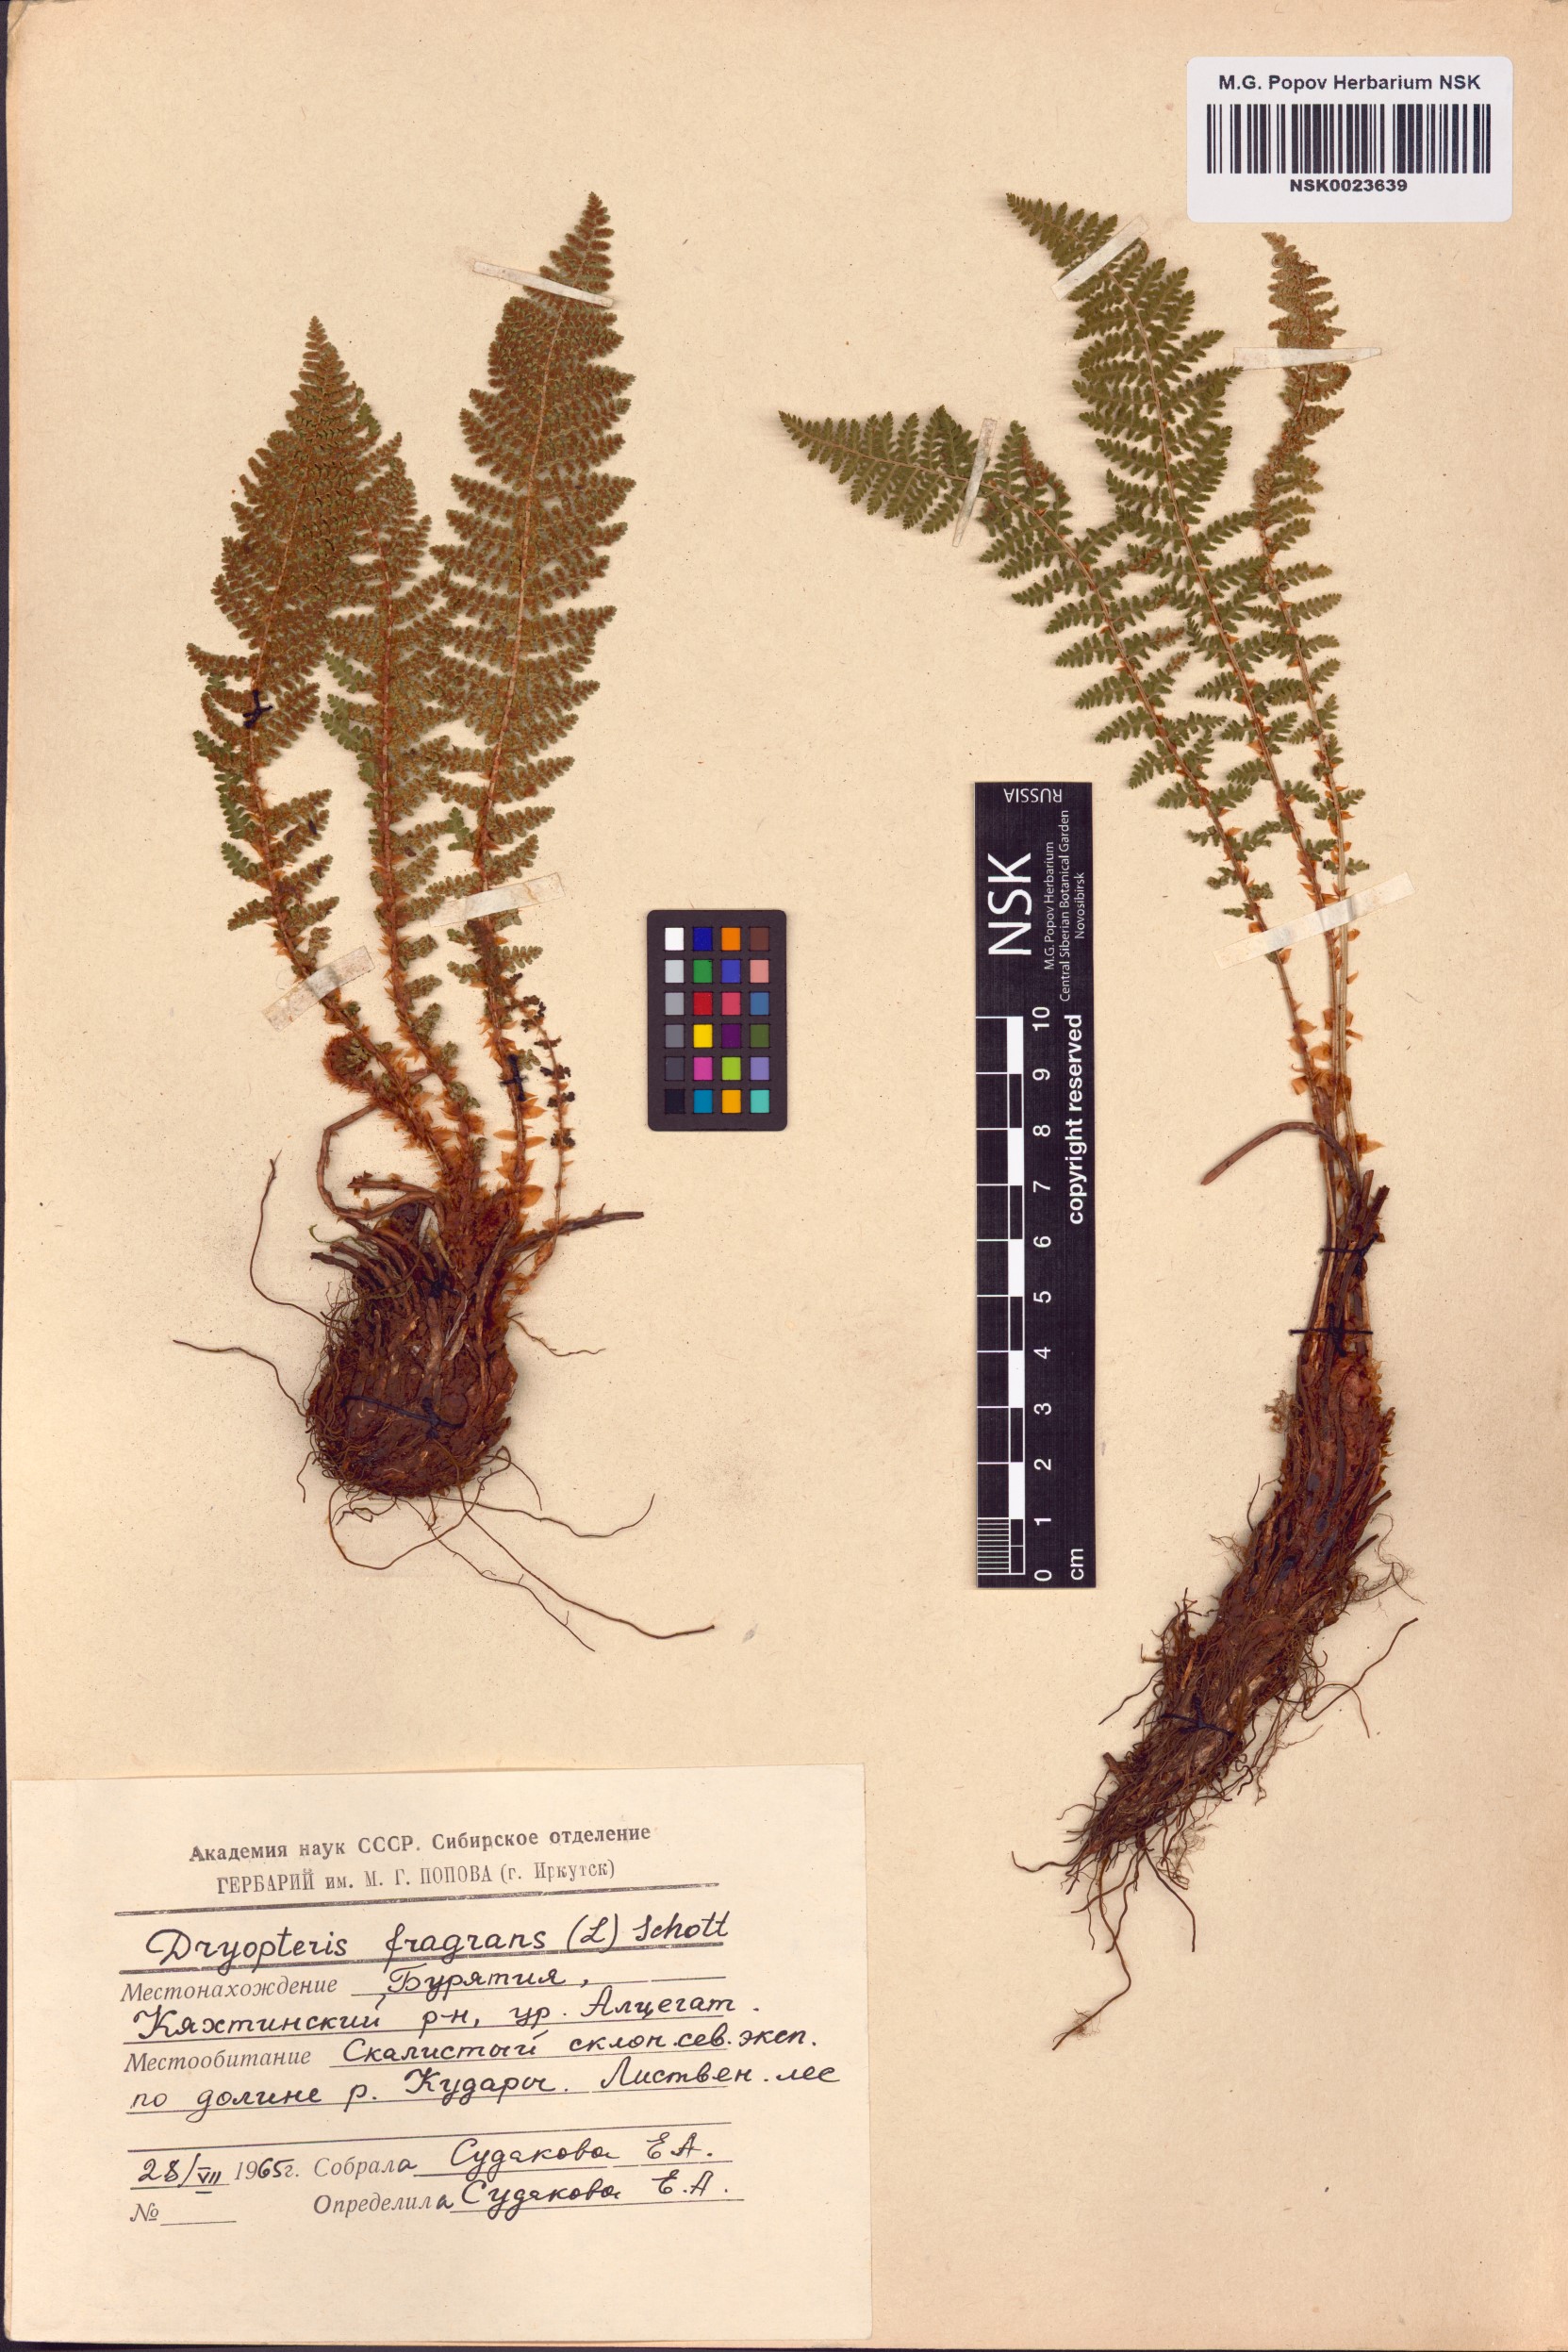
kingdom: Plantae
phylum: Tracheophyta
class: Polypodiopsida
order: Polypodiales
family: Dryopteridaceae
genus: Dryopteris
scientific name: Dryopteris fragrans
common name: Fragrant wood fern
